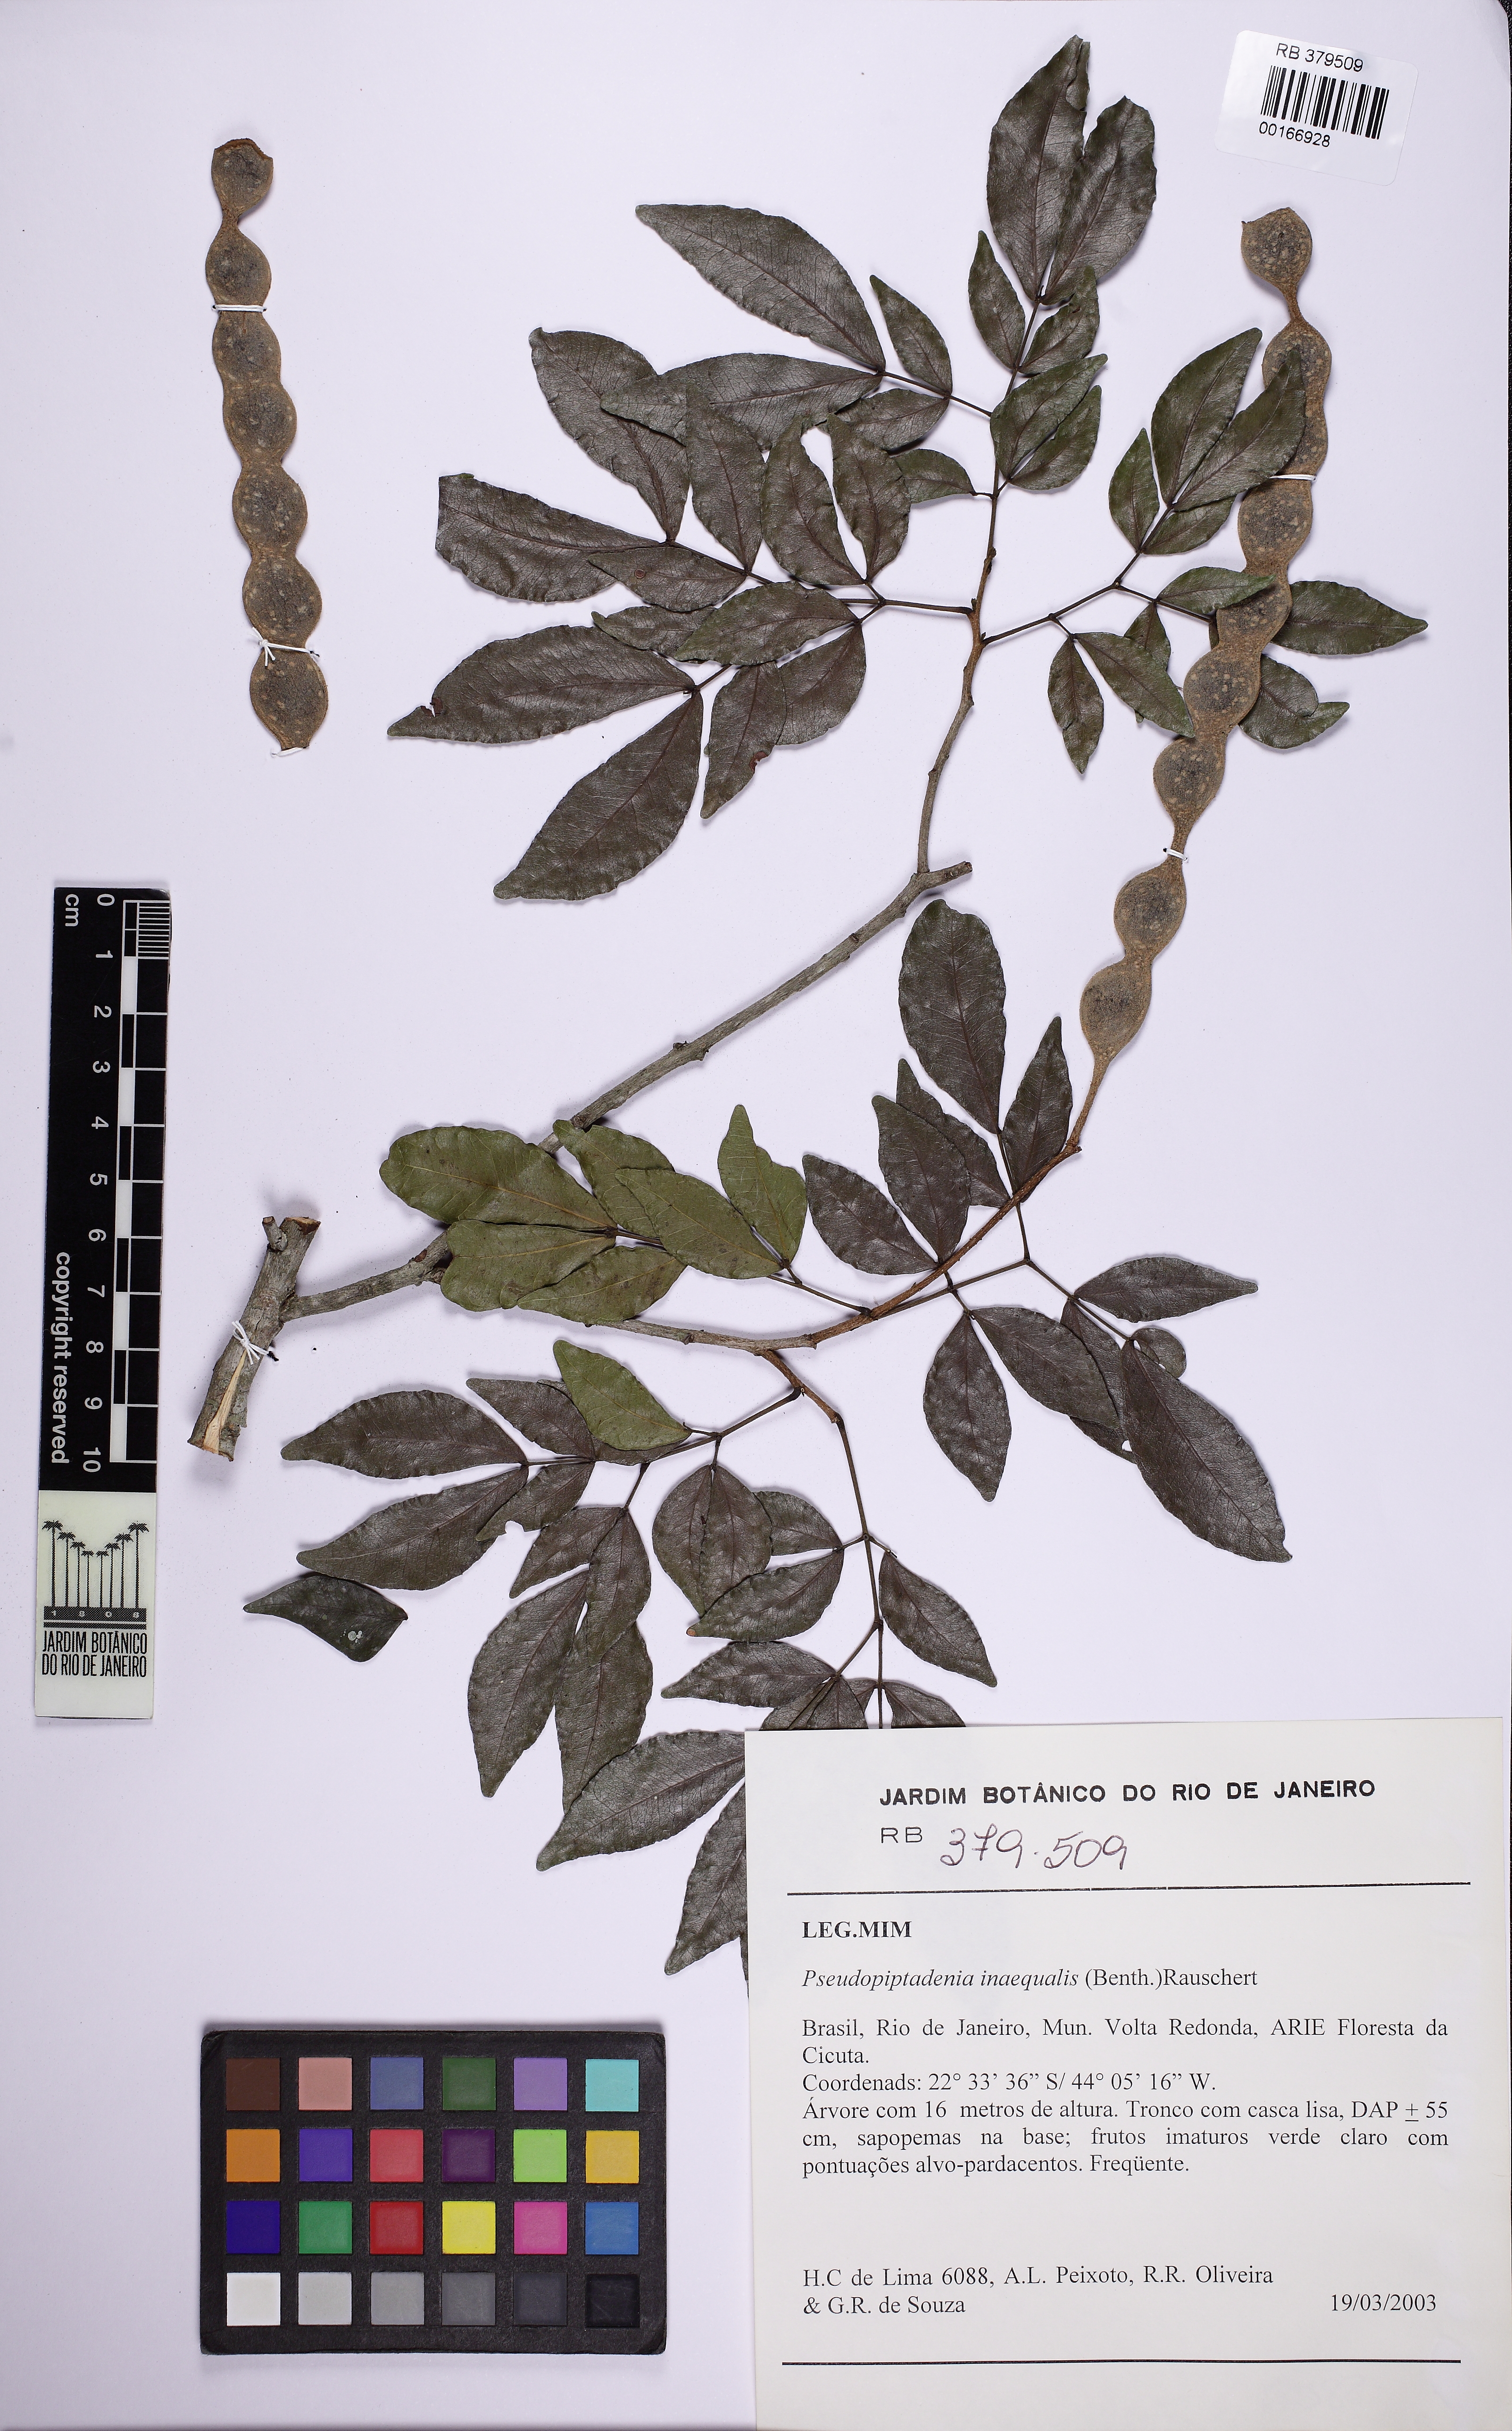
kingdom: Plantae
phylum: Tracheophyta
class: Magnoliopsida
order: Fabales
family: Fabaceae
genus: Pseudopiptadenia
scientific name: Pseudopiptadenia inaequalis
